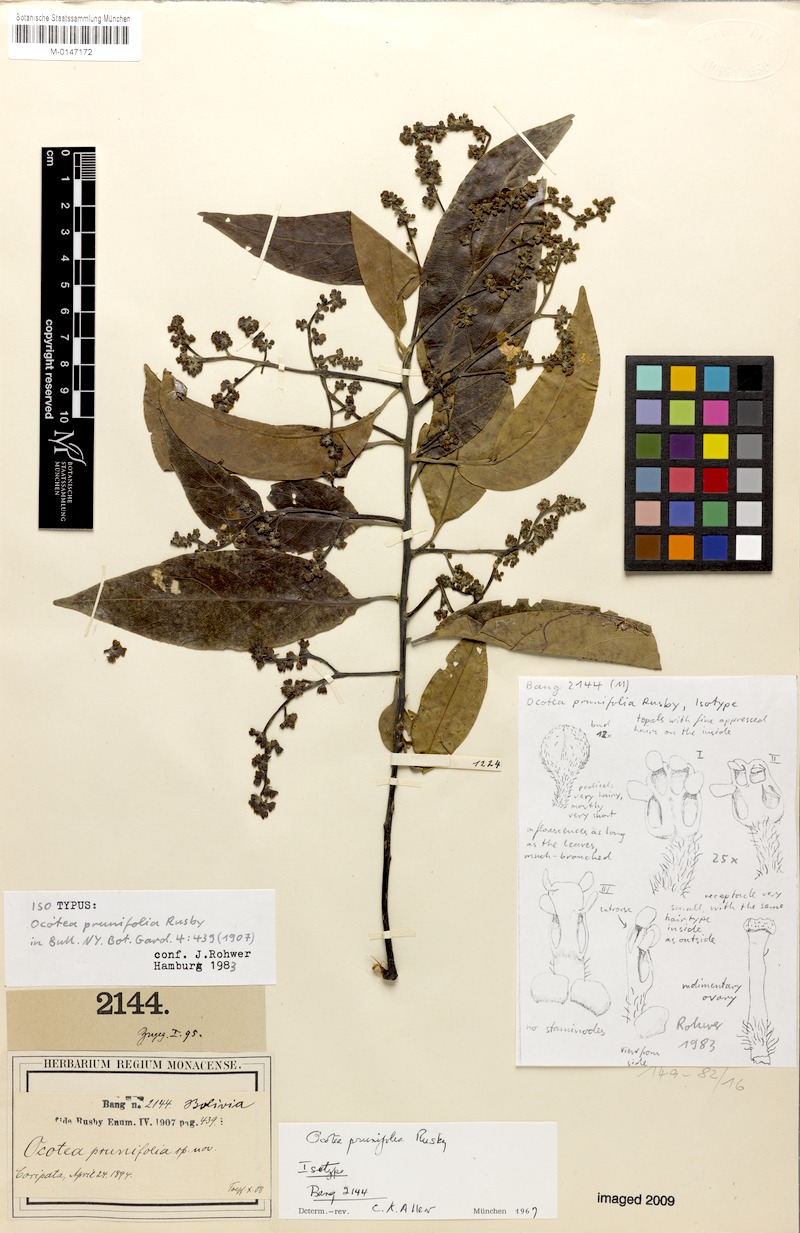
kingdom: Plantae
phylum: Tracheophyta
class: Magnoliopsida
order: Laurales
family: Lauraceae
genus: Ocotea
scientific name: Ocotea prunifolia
